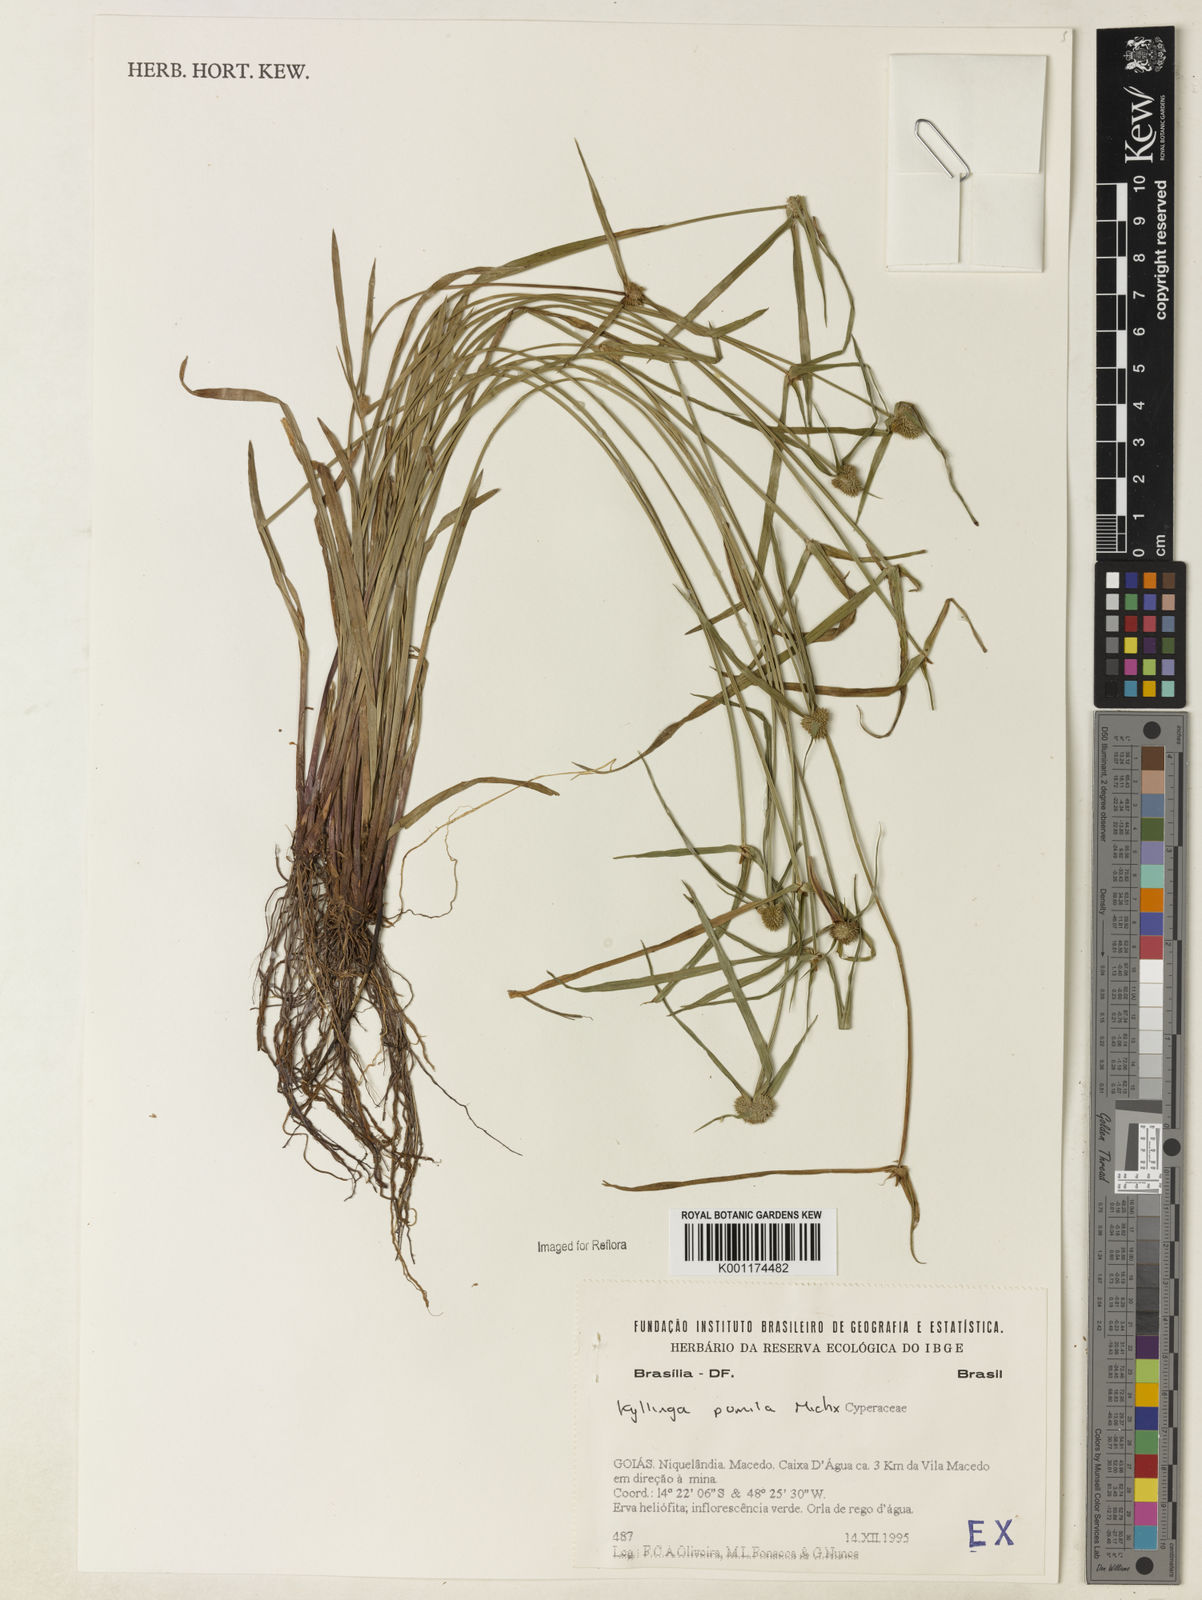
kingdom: Plantae
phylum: Tracheophyta
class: Liliopsida
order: Poales
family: Cyperaceae
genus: Cyperus
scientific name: Cyperus
